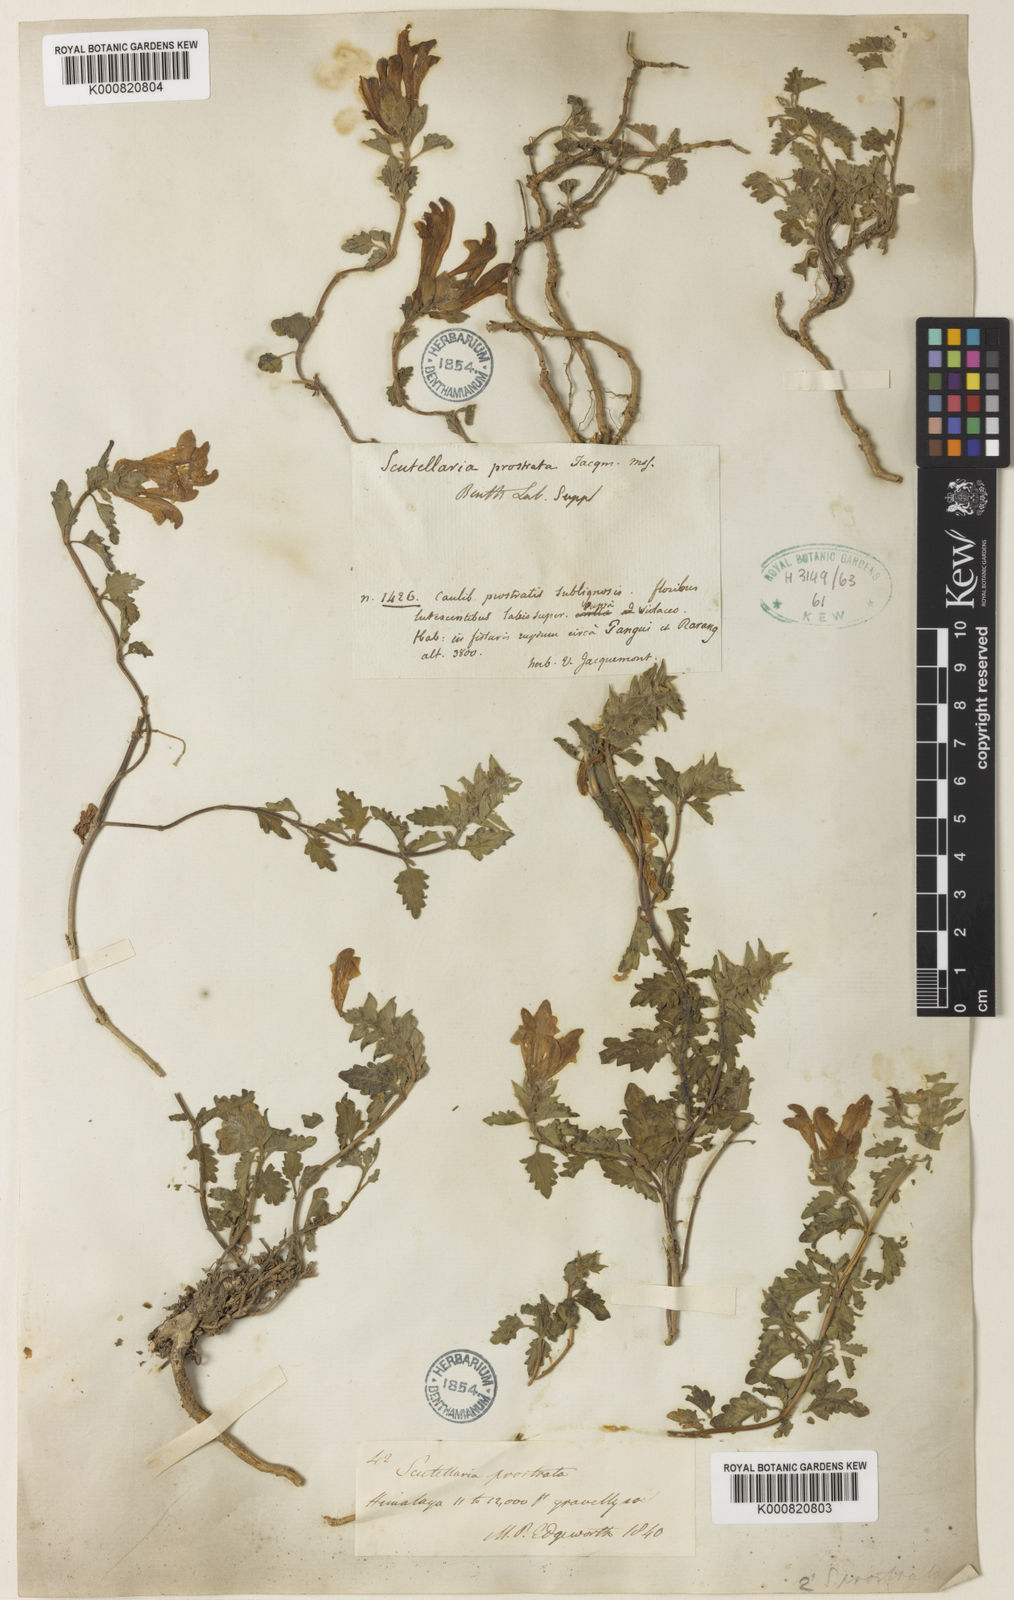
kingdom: Plantae
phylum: Tracheophyta
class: Magnoliopsida
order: Lamiales
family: Lamiaceae
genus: Scutellaria
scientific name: Scutellaria prostrata
